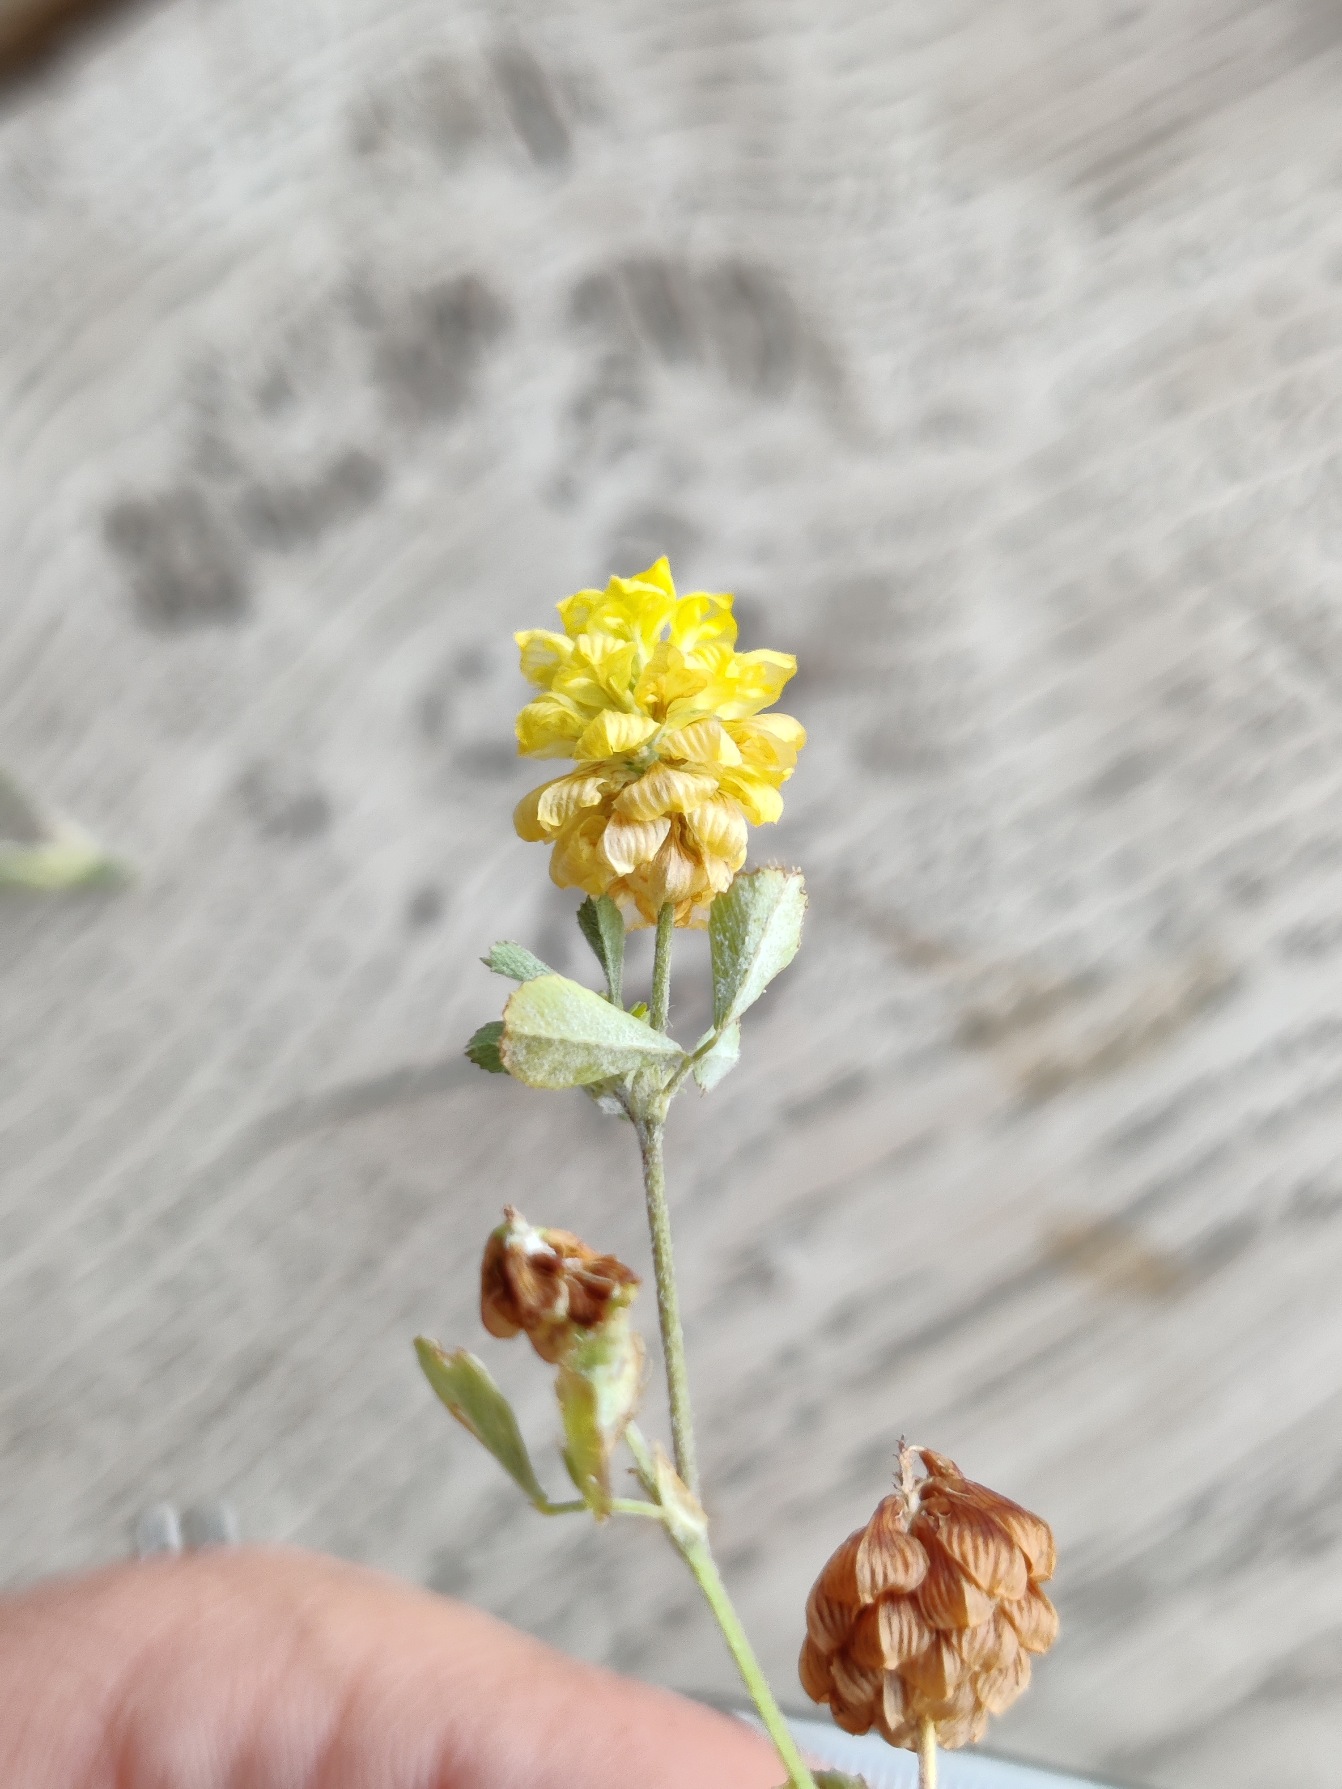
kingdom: Plantae
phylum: Tracheophyta
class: Magnoliopsida
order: Fabales
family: Fabaceae
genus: Trifolium
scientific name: Trifolium campestre
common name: Gul kløver
